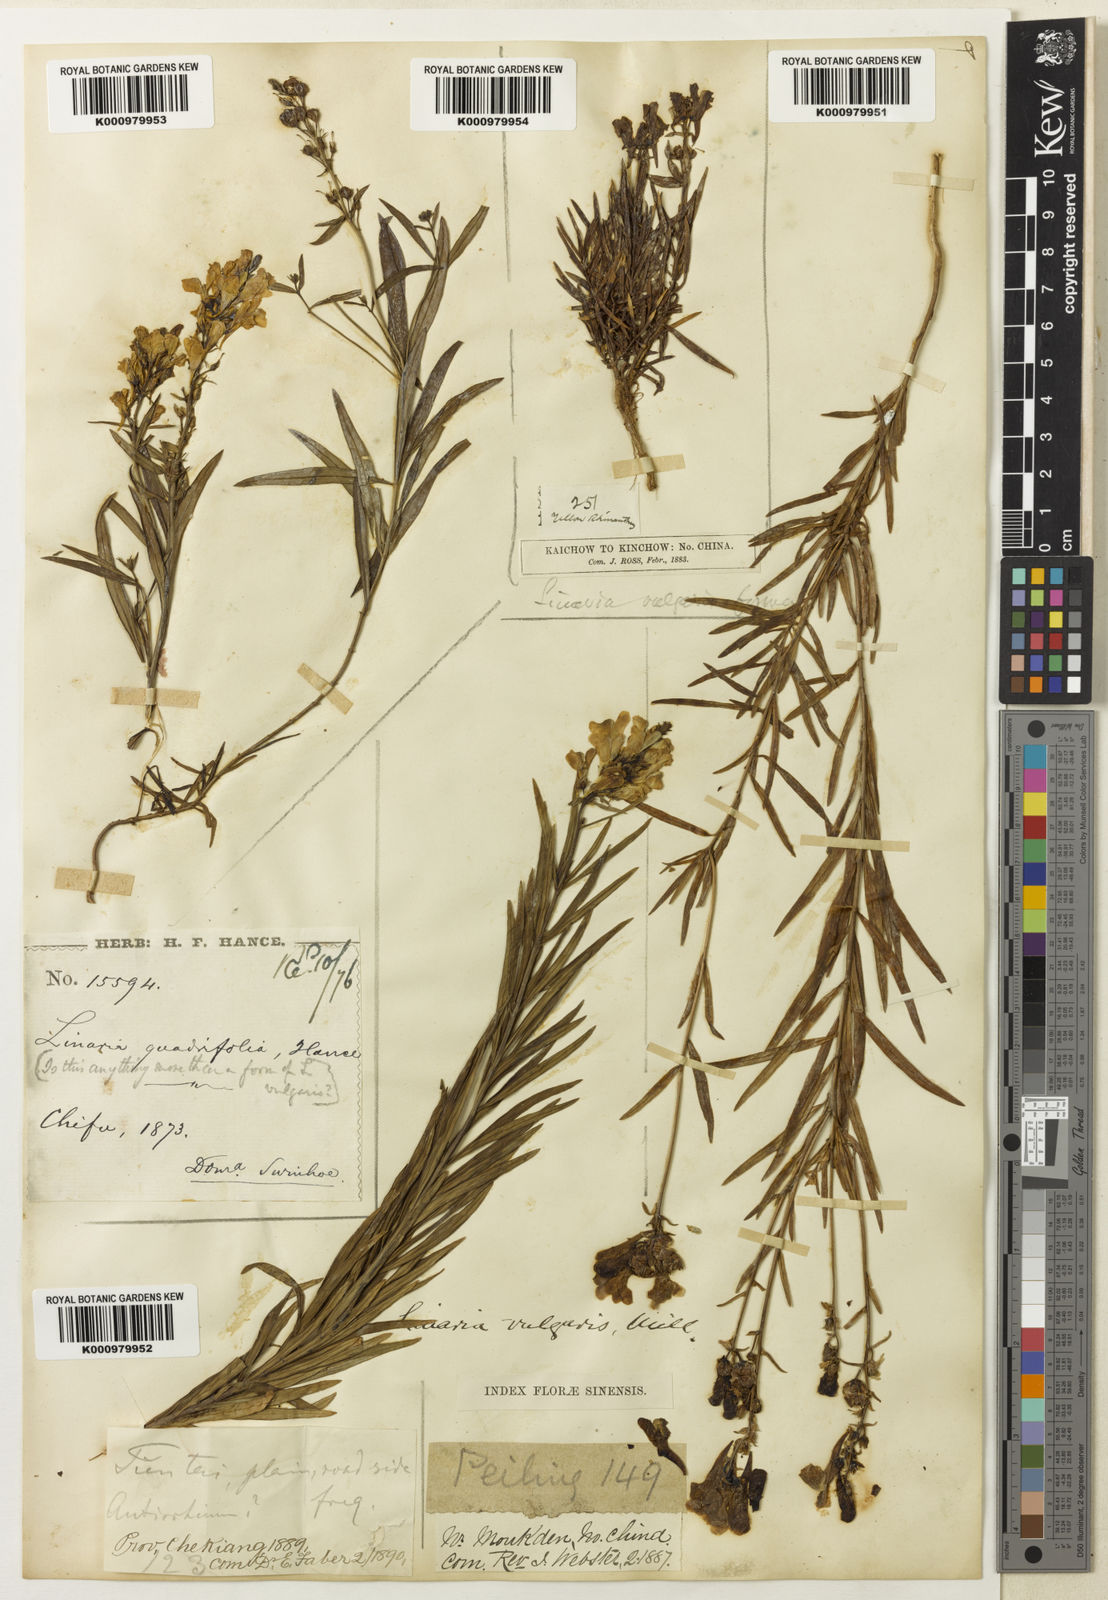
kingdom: Plantae
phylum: Tracheophyta
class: Magnoliopsida
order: Lamiales
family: Plantaginaceae
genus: Linaria
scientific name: Linaria vulgaris
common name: Butter and eggs
